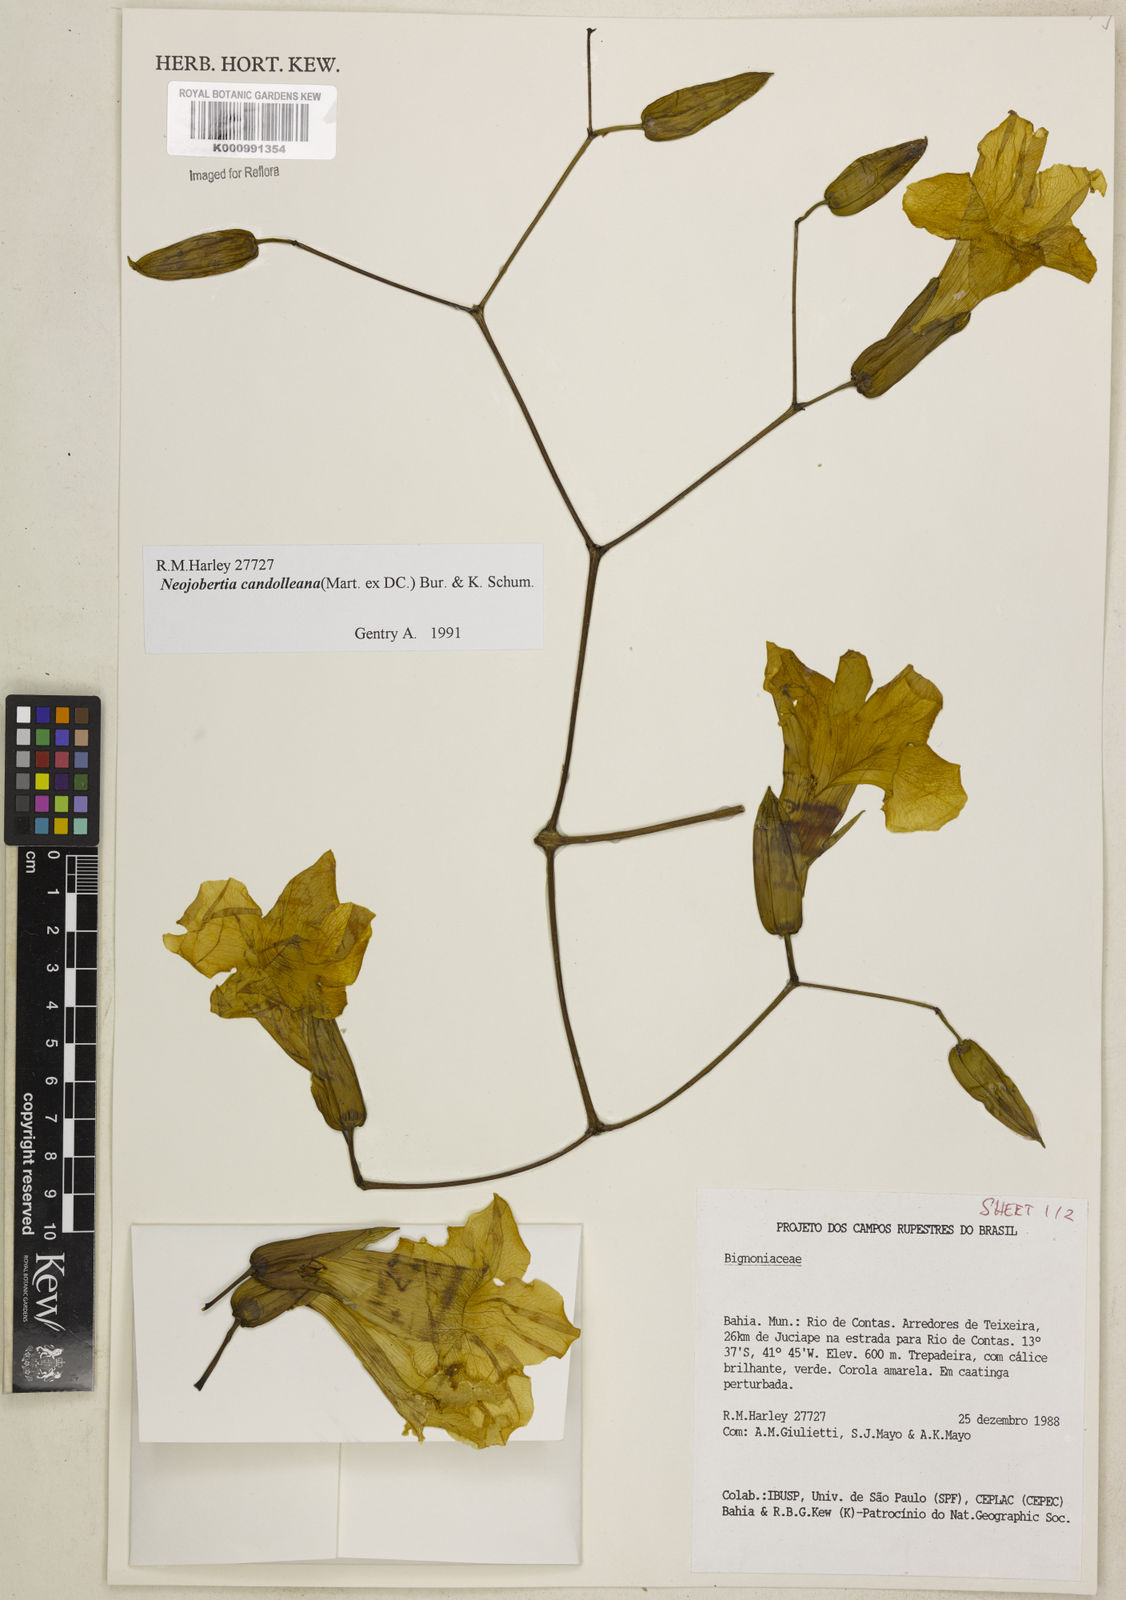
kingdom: Plantae
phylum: Tracheophyta
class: Magnoliopsida
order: Lamiales
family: Bignoniaceae
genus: Adenocalymma
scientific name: Adenocalymma candolleanum
